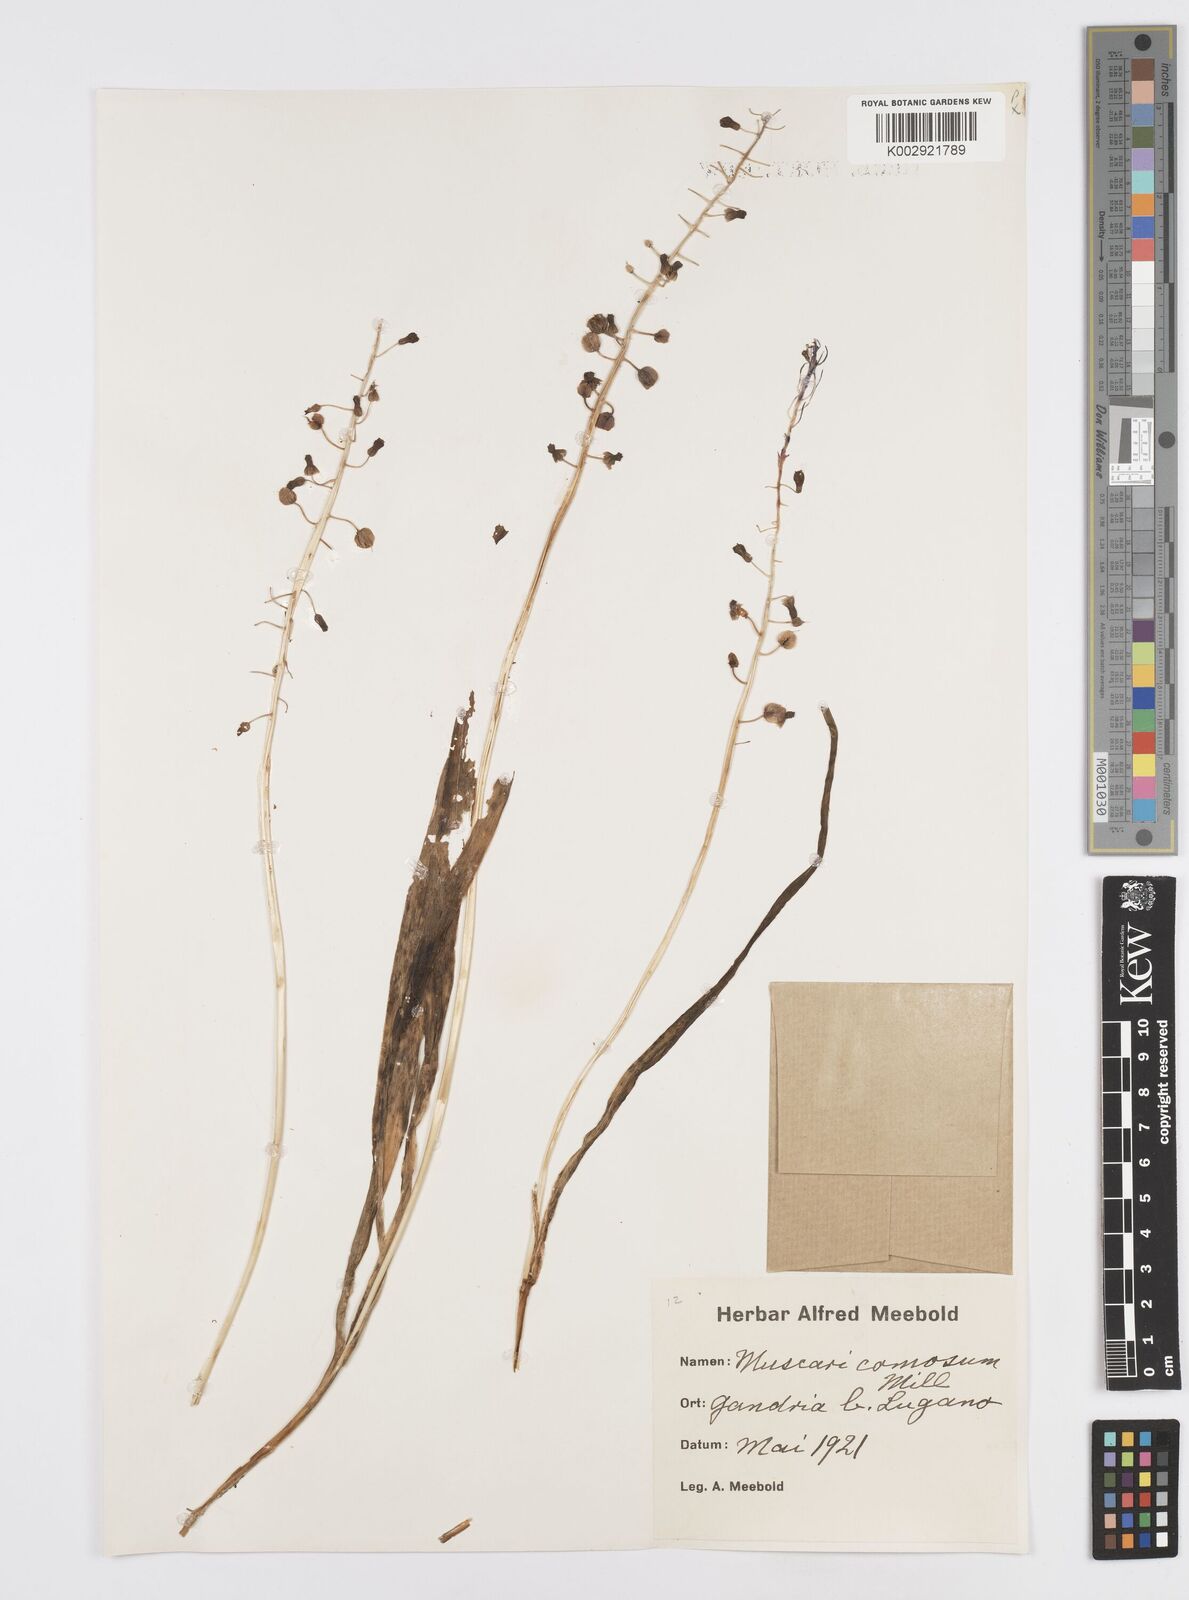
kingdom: Plantae
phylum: Tracheophyta
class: Liliopsida
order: Asparagales
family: Asparagaceae
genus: Muscari
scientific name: Muscari comosum
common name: Tassel hyacinth
